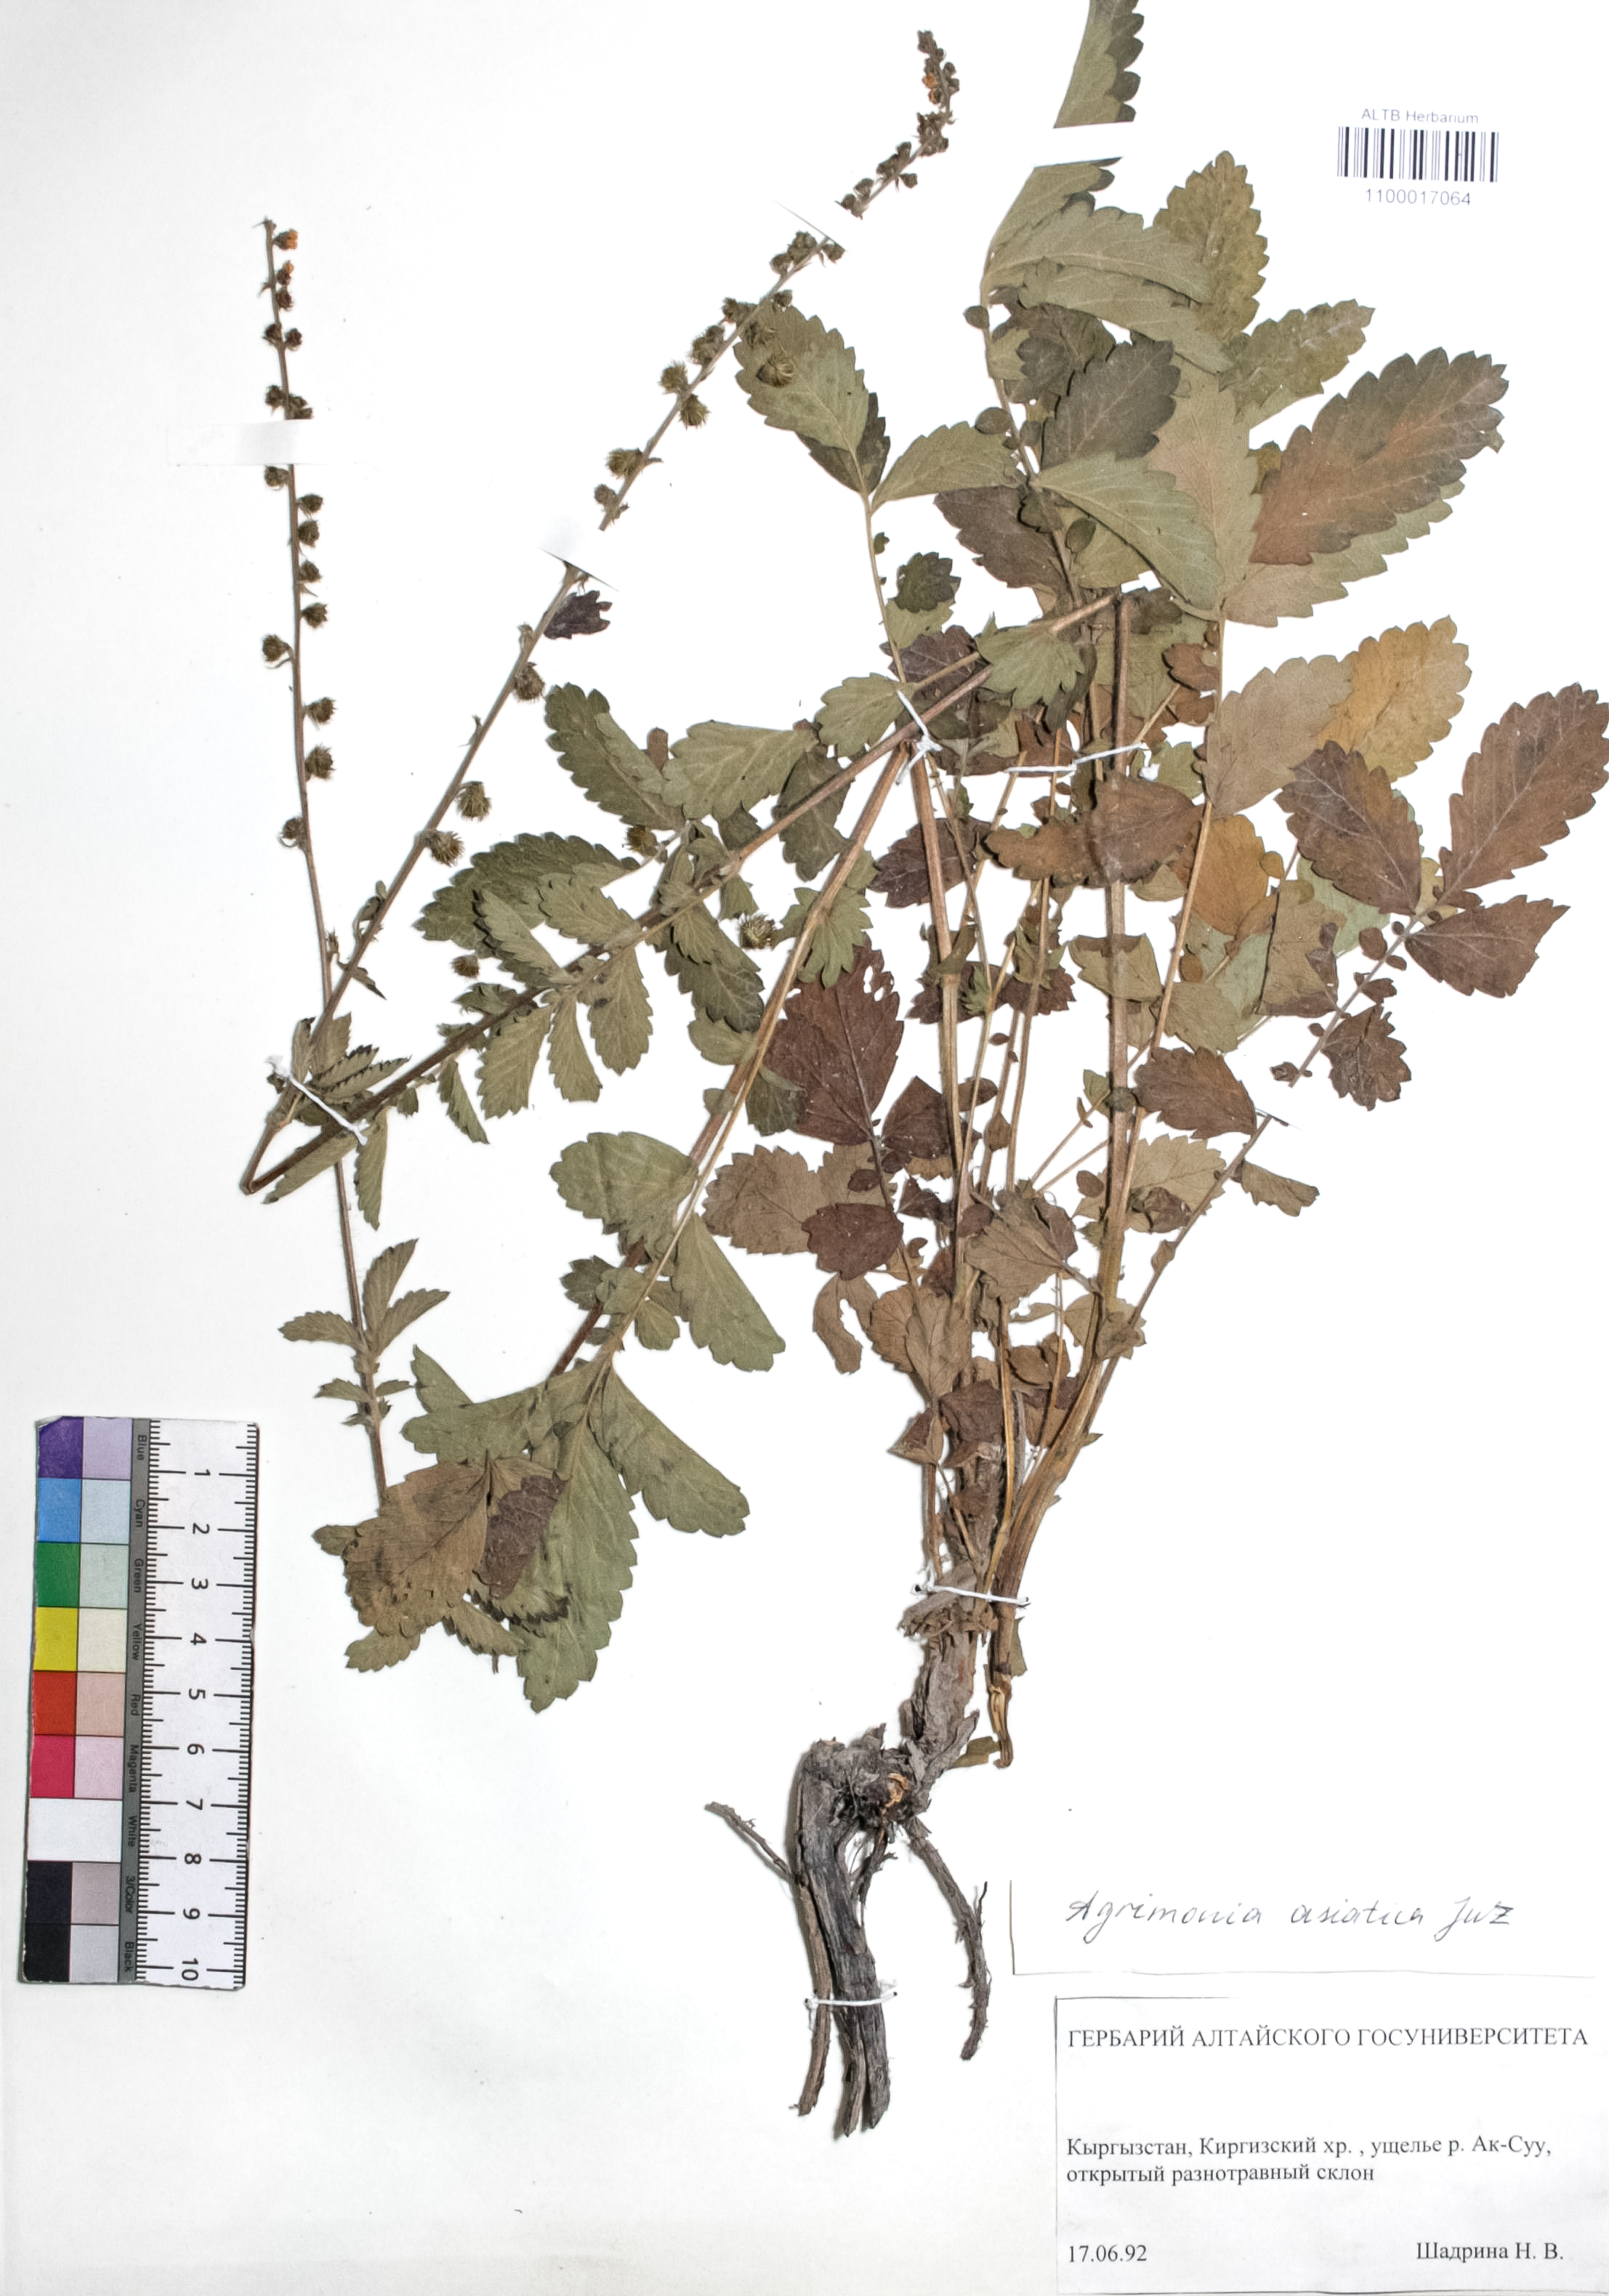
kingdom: Plantae
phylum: Tracheophyta
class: Magnoliopsida
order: Rosales
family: Rosaceae
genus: Agrimonia
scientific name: Agrimonia eupatoria
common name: Agrimony
